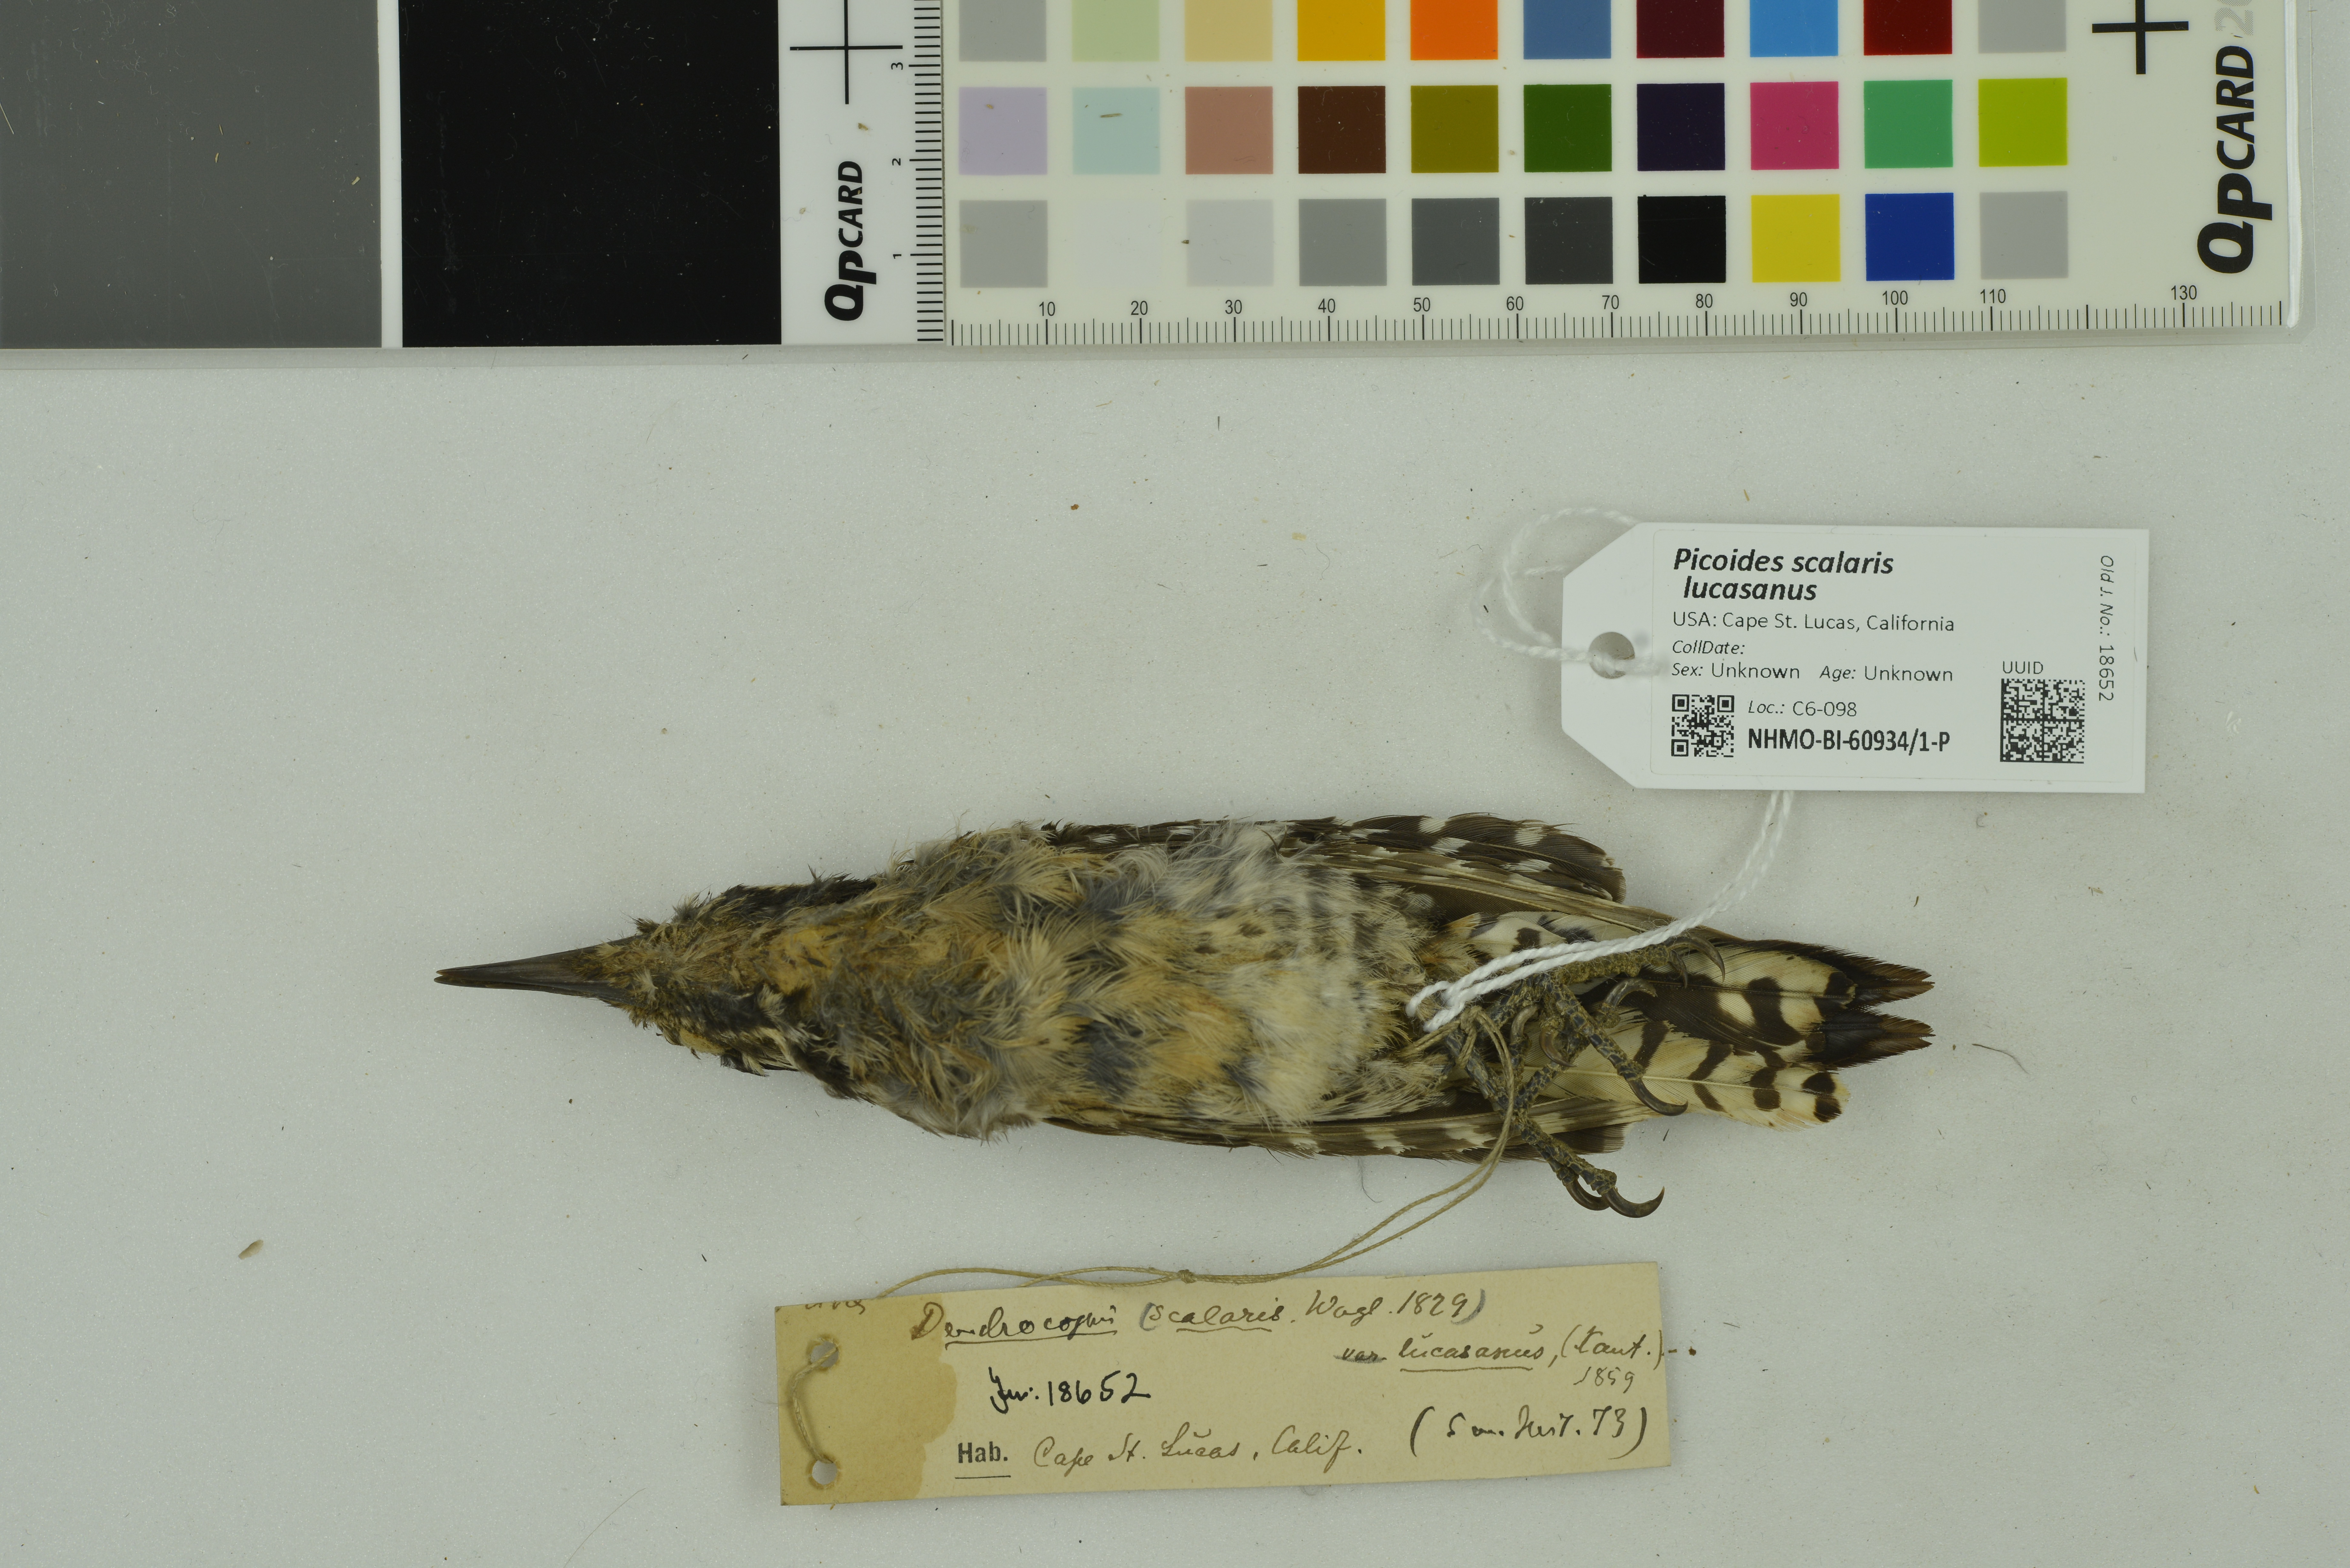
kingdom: Animalia
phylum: Chordata
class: Aves
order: Piciformes
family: Picidae
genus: Dryobates
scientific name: Dryobates scalaris
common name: Ladder-backed woodpecker
